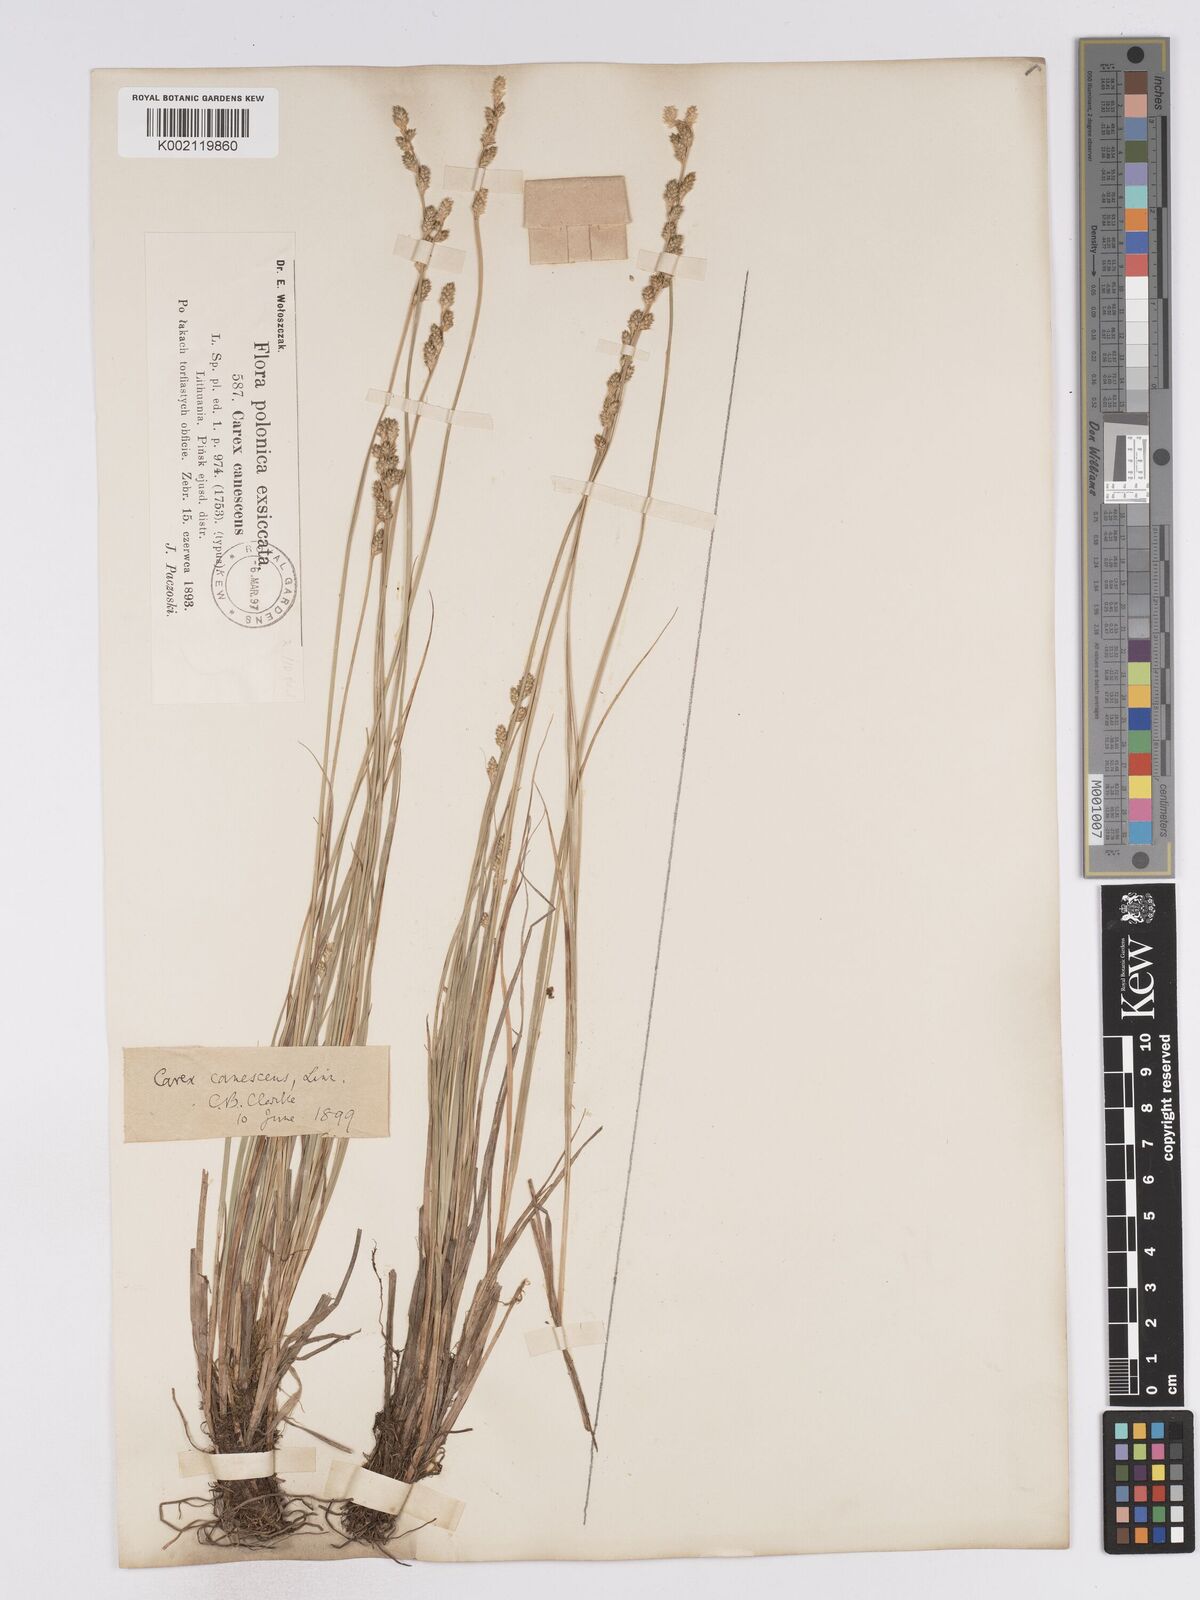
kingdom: Plantae
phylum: Tracheophyta
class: Liliopsida
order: Poales
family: Cyperaceae
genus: Carex
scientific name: Carex curta
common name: White sedge
